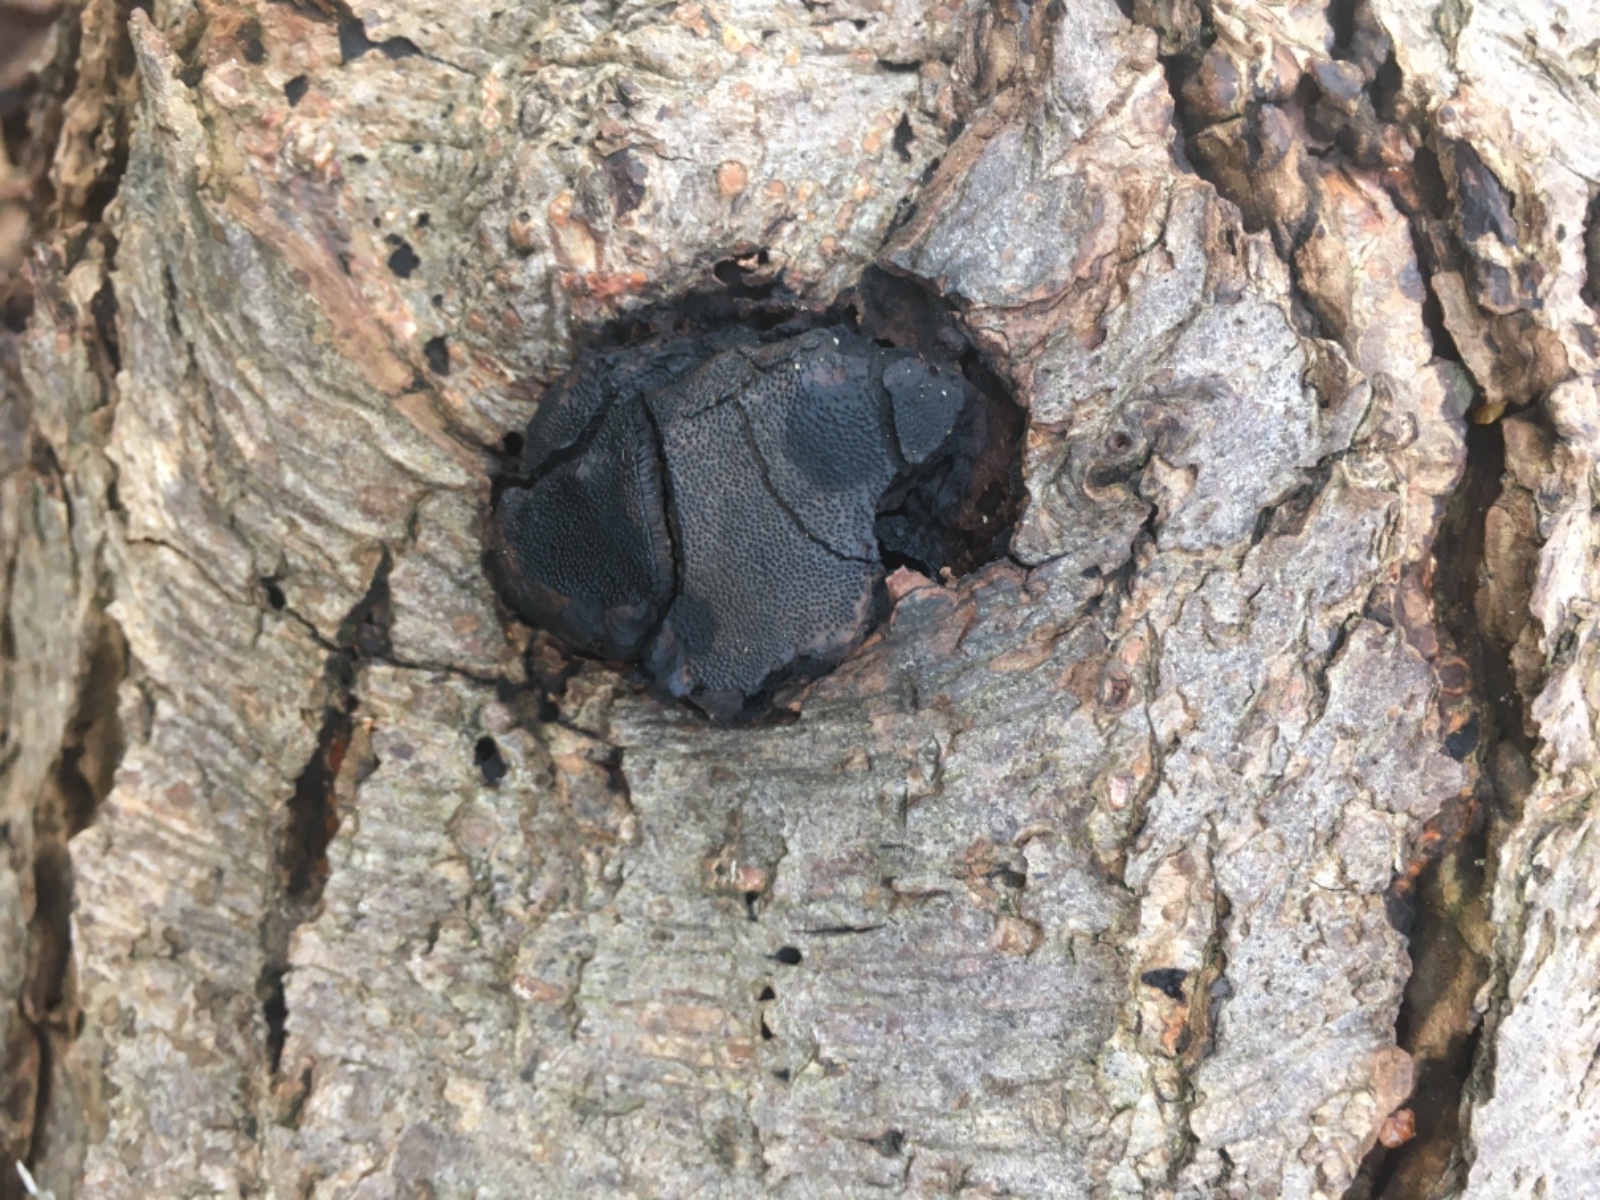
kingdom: Fungi
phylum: Ascomycota
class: Sordariomycetes
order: Boliniales
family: Boliniaceae
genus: Camarops
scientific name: Camarops polysperma
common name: elle-kulsnegl
